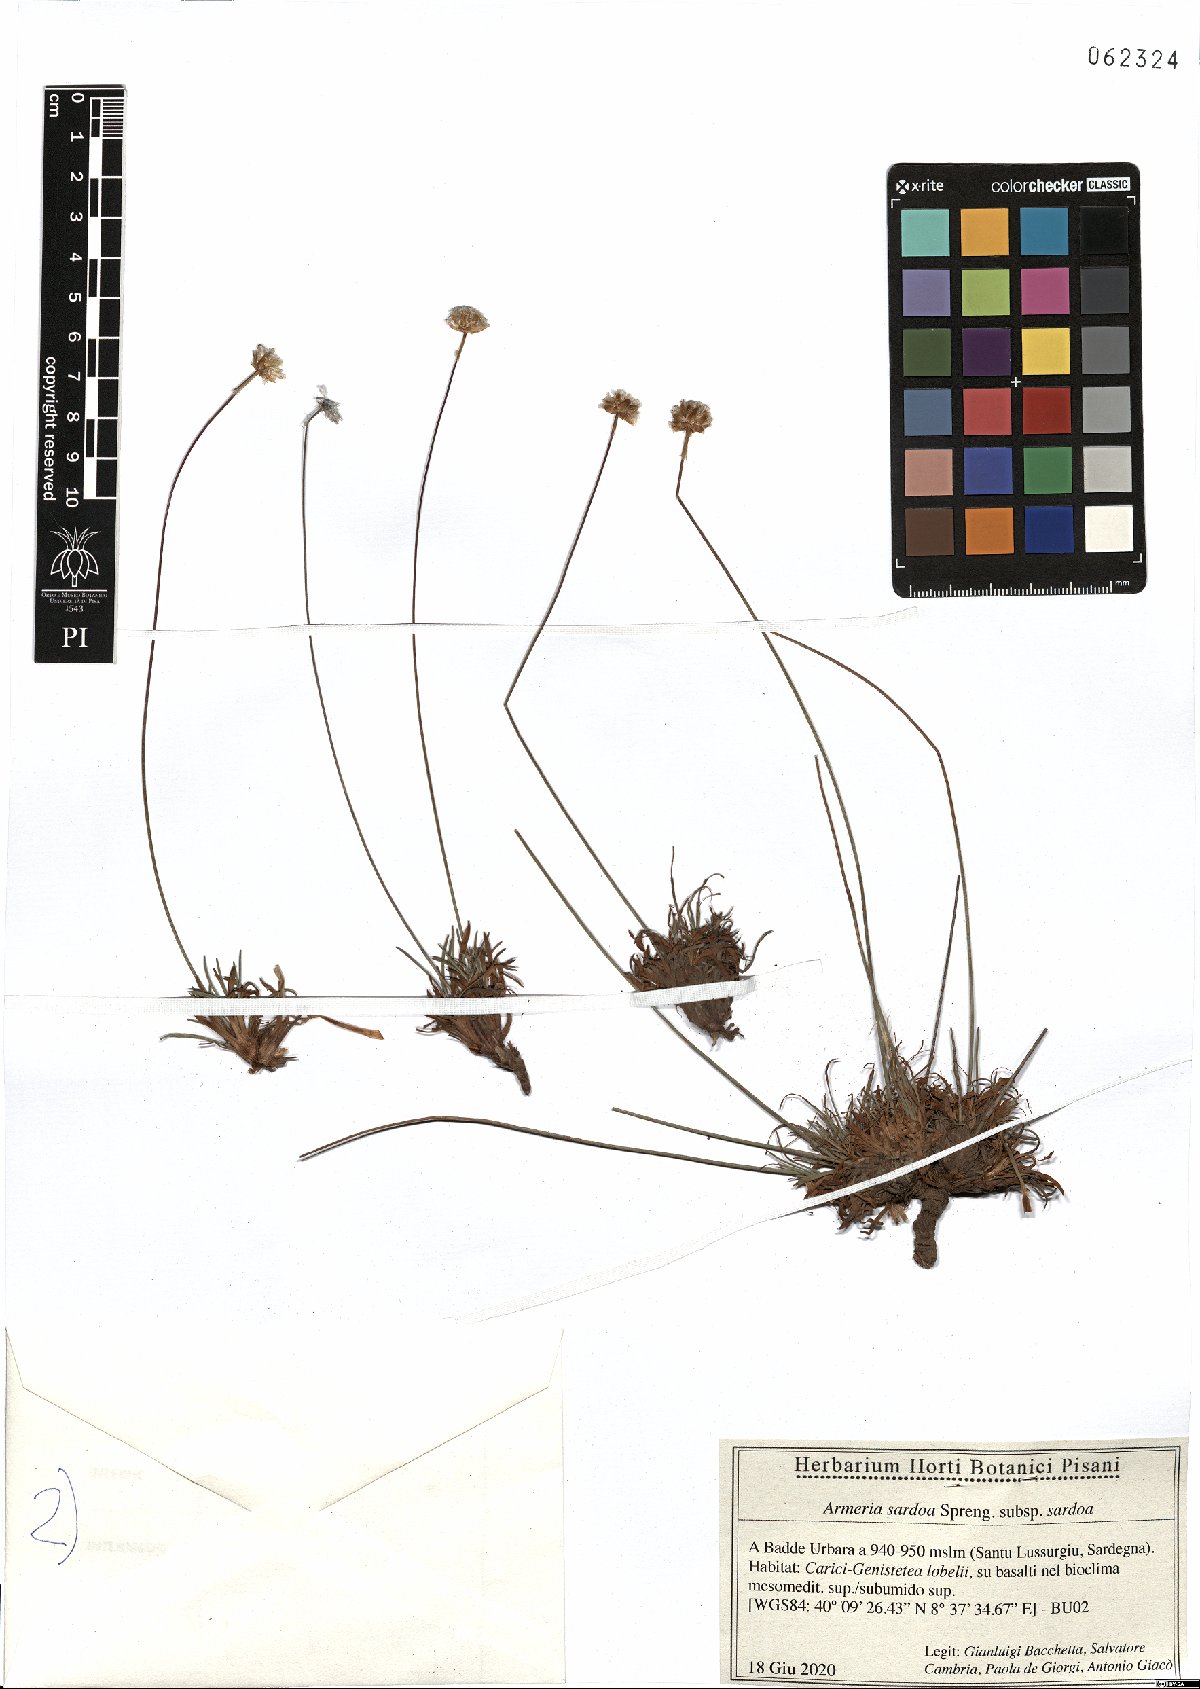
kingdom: Plantae
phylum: Tracheophyta
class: Magnoliopsida
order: Caryophyllales
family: Plumbaginaceae
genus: Armeria
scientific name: Armeria sardoa
